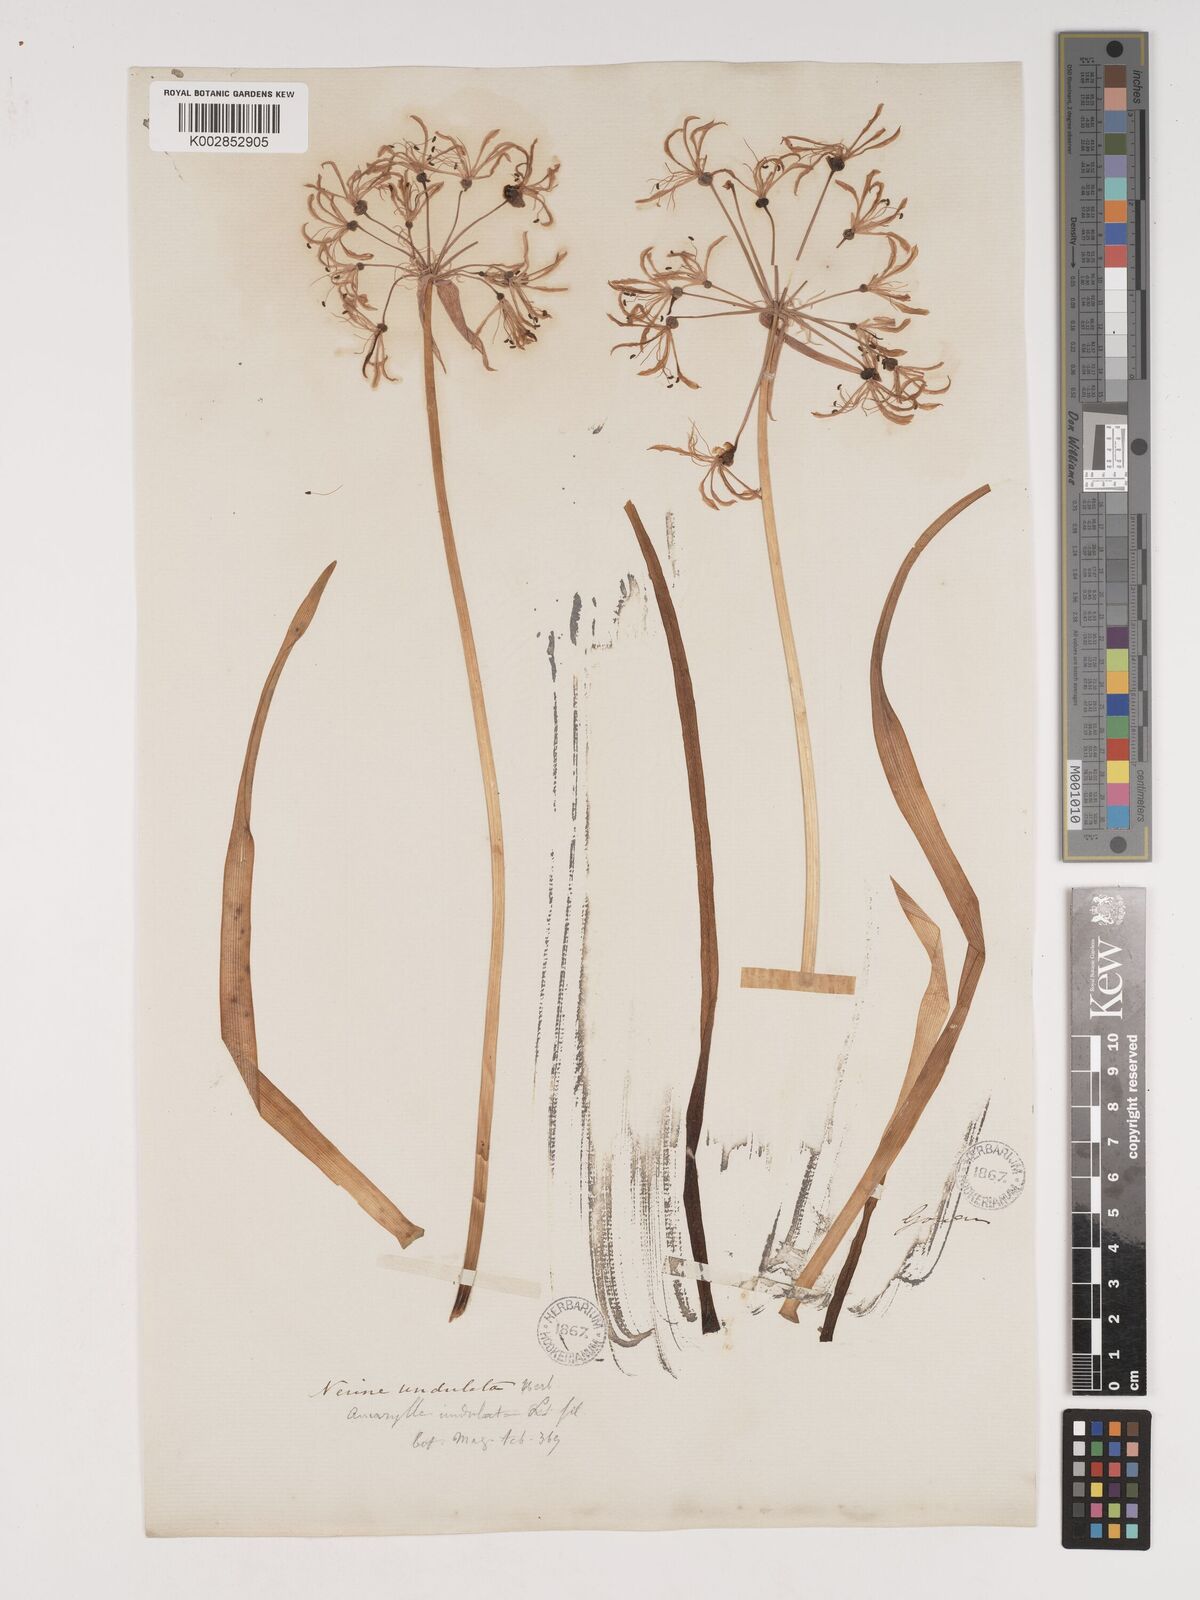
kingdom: Plantae
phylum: Tracheophyta
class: Liliopsida
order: Asparagales
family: Amaryllidaceae
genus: Nerine
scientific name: Nerine undulata
